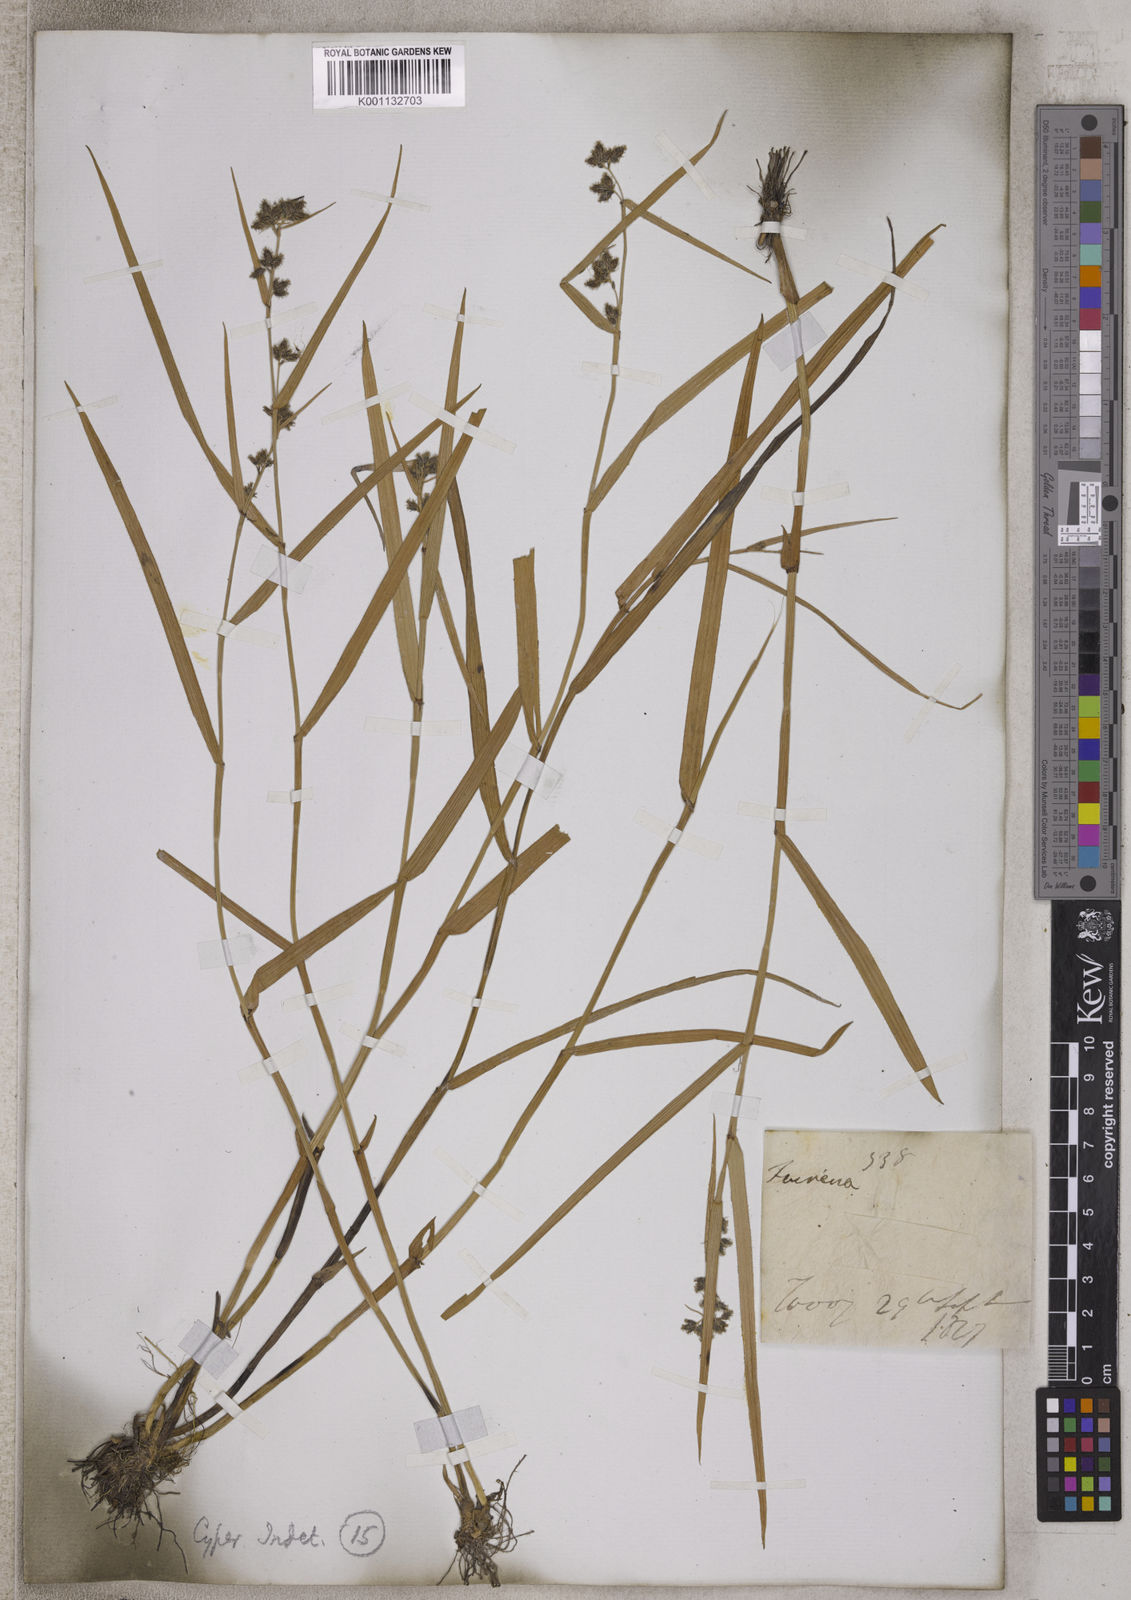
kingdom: Plantae
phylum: Tracheophyta
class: Liliopsida
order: Poales
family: Cyperaceae
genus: Fuirena
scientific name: Fuirena
